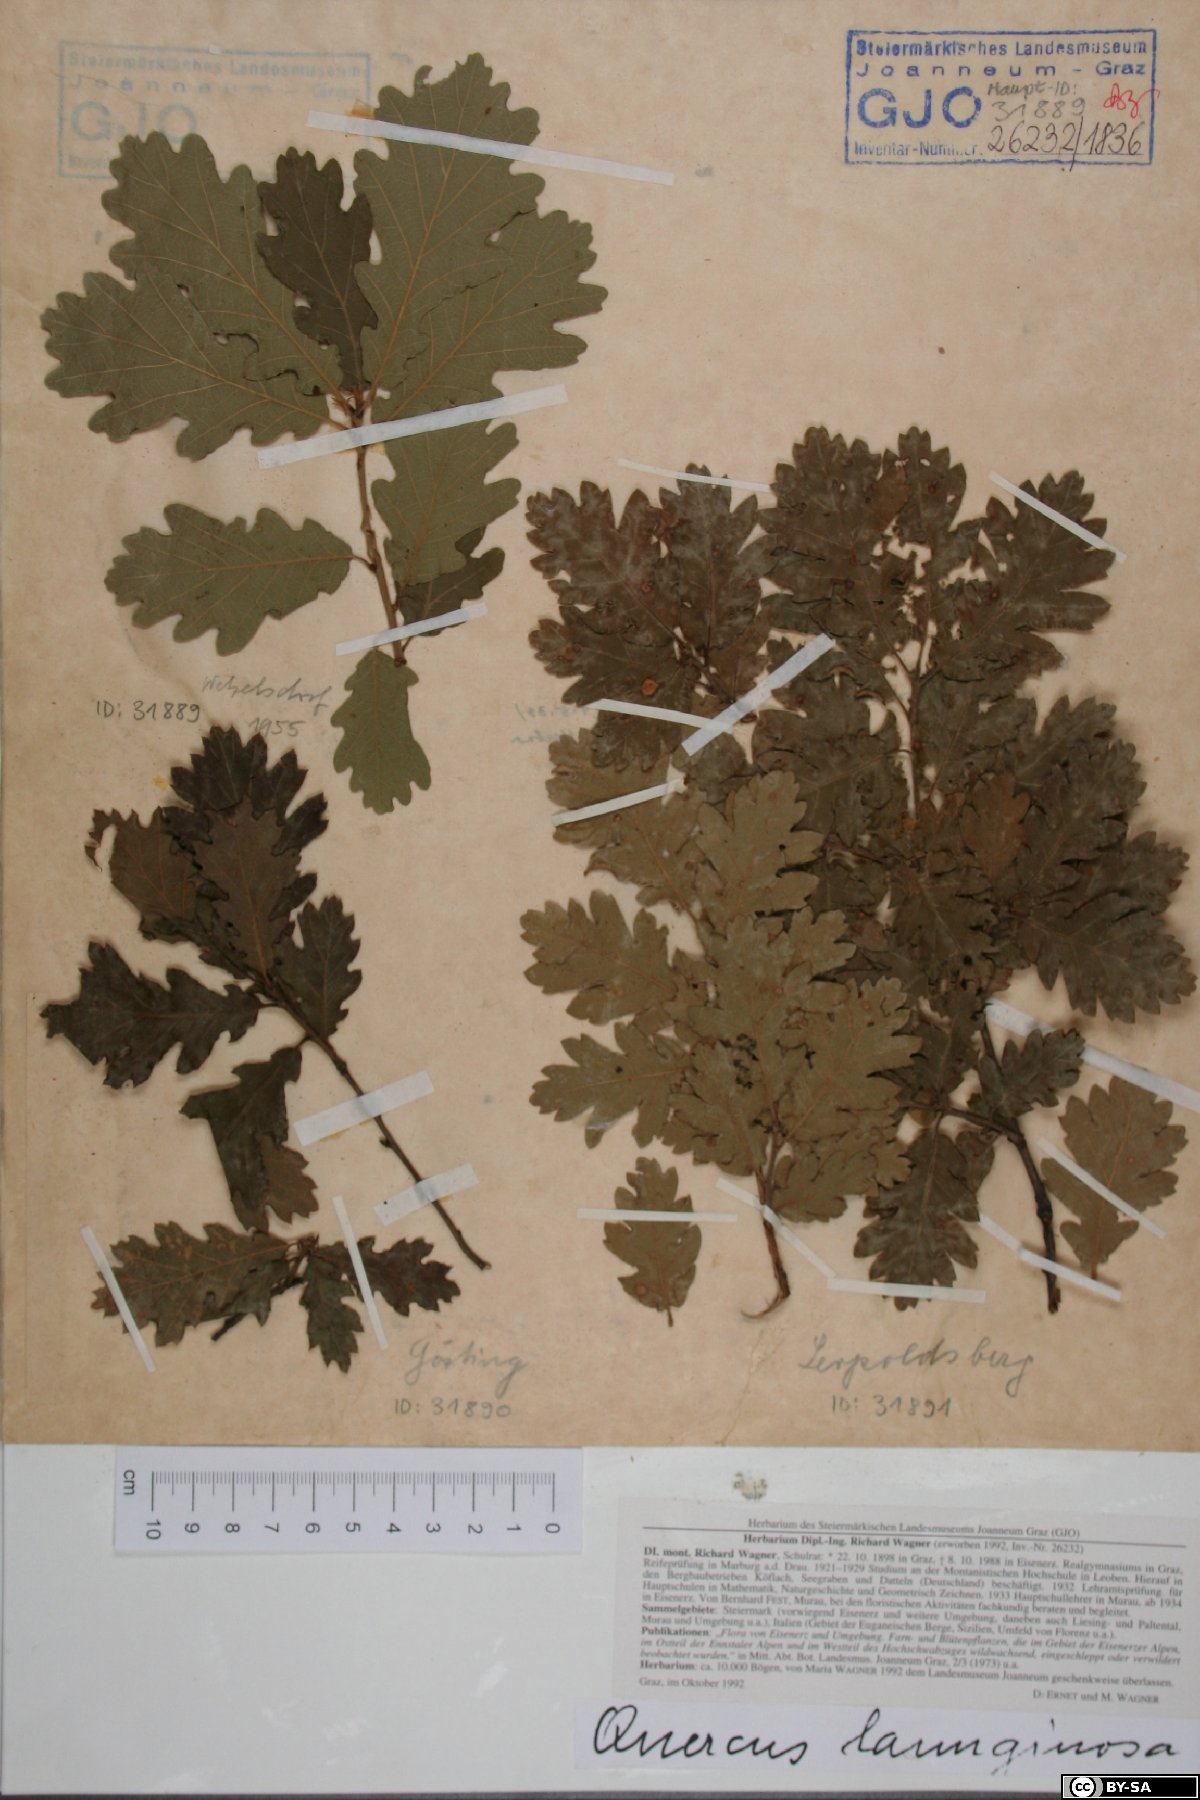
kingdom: Plantae
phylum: Tracheophyta
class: Magnoliopsida
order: Fagales
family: Fagaceae
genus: Quercus
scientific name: Quercus pubescens
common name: Downy oak
